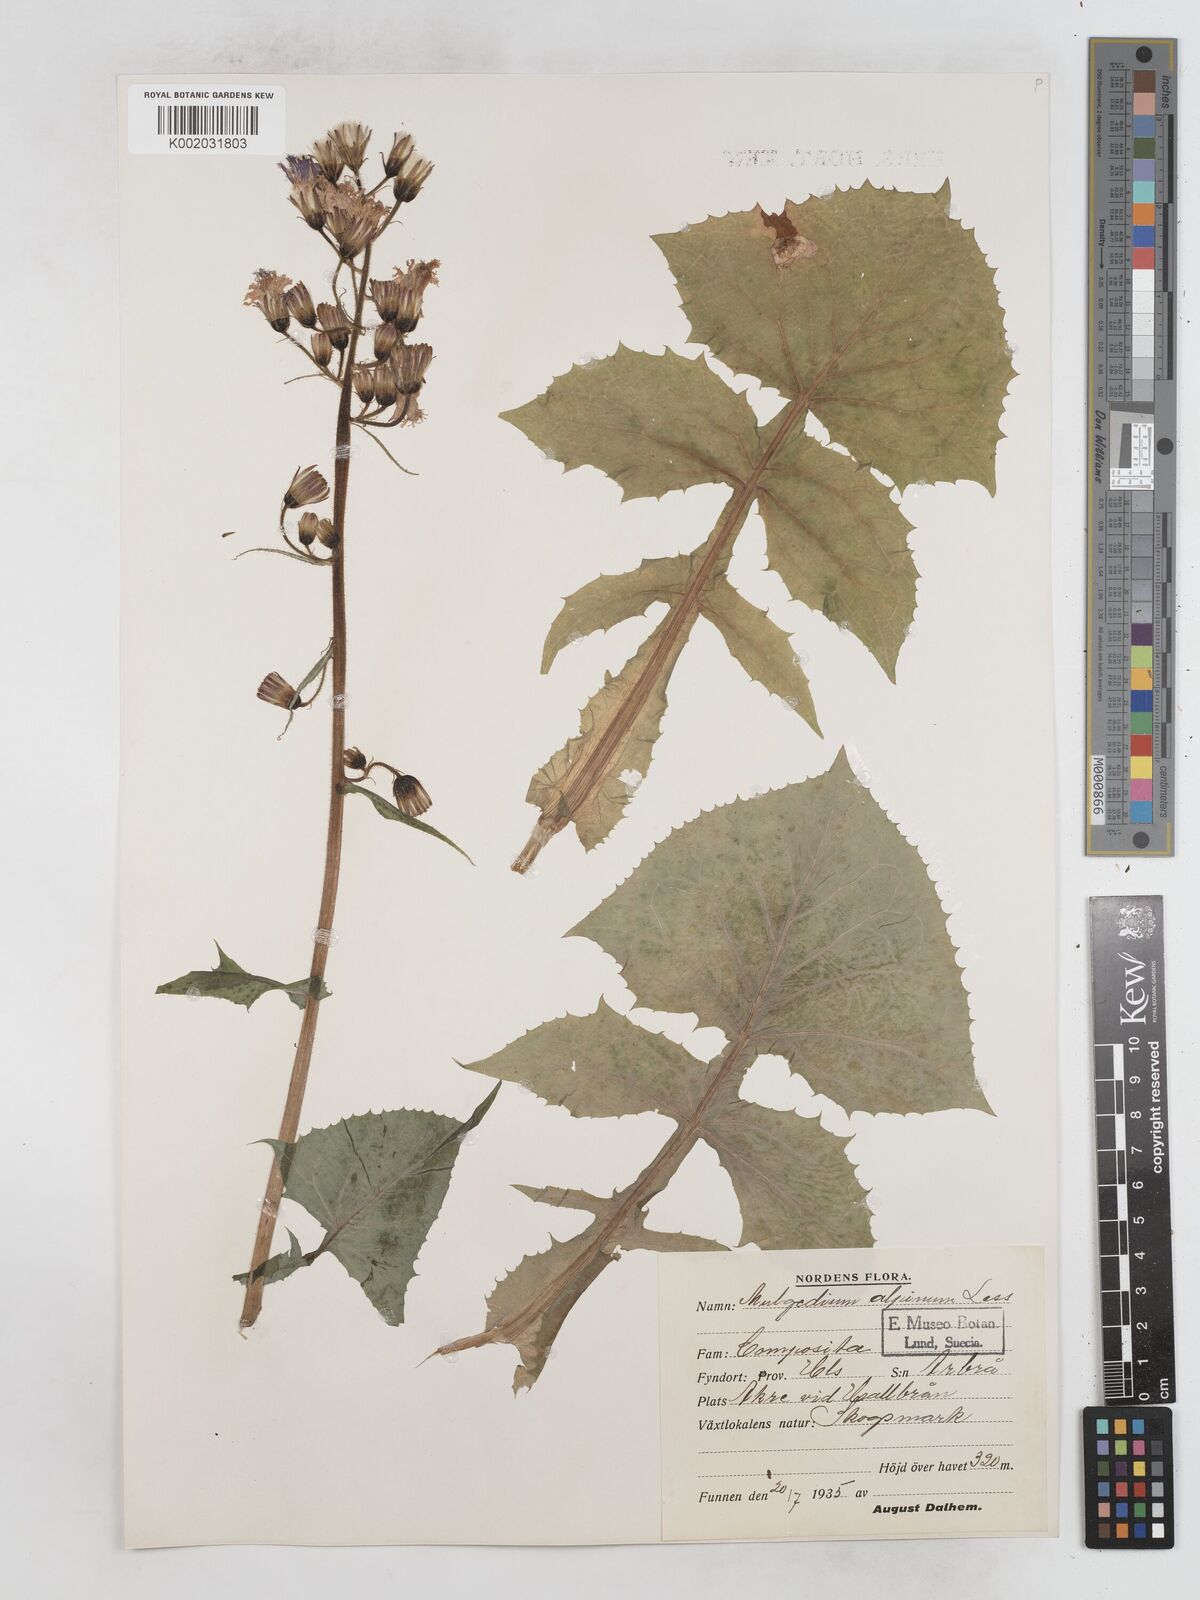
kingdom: Plantae
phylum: Tracheophyta
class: Magnoliopsida
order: Asterales
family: Asteraceae
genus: Cicerbita
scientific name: Cicerbita alpina
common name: Alpine blue-sow-thistle
